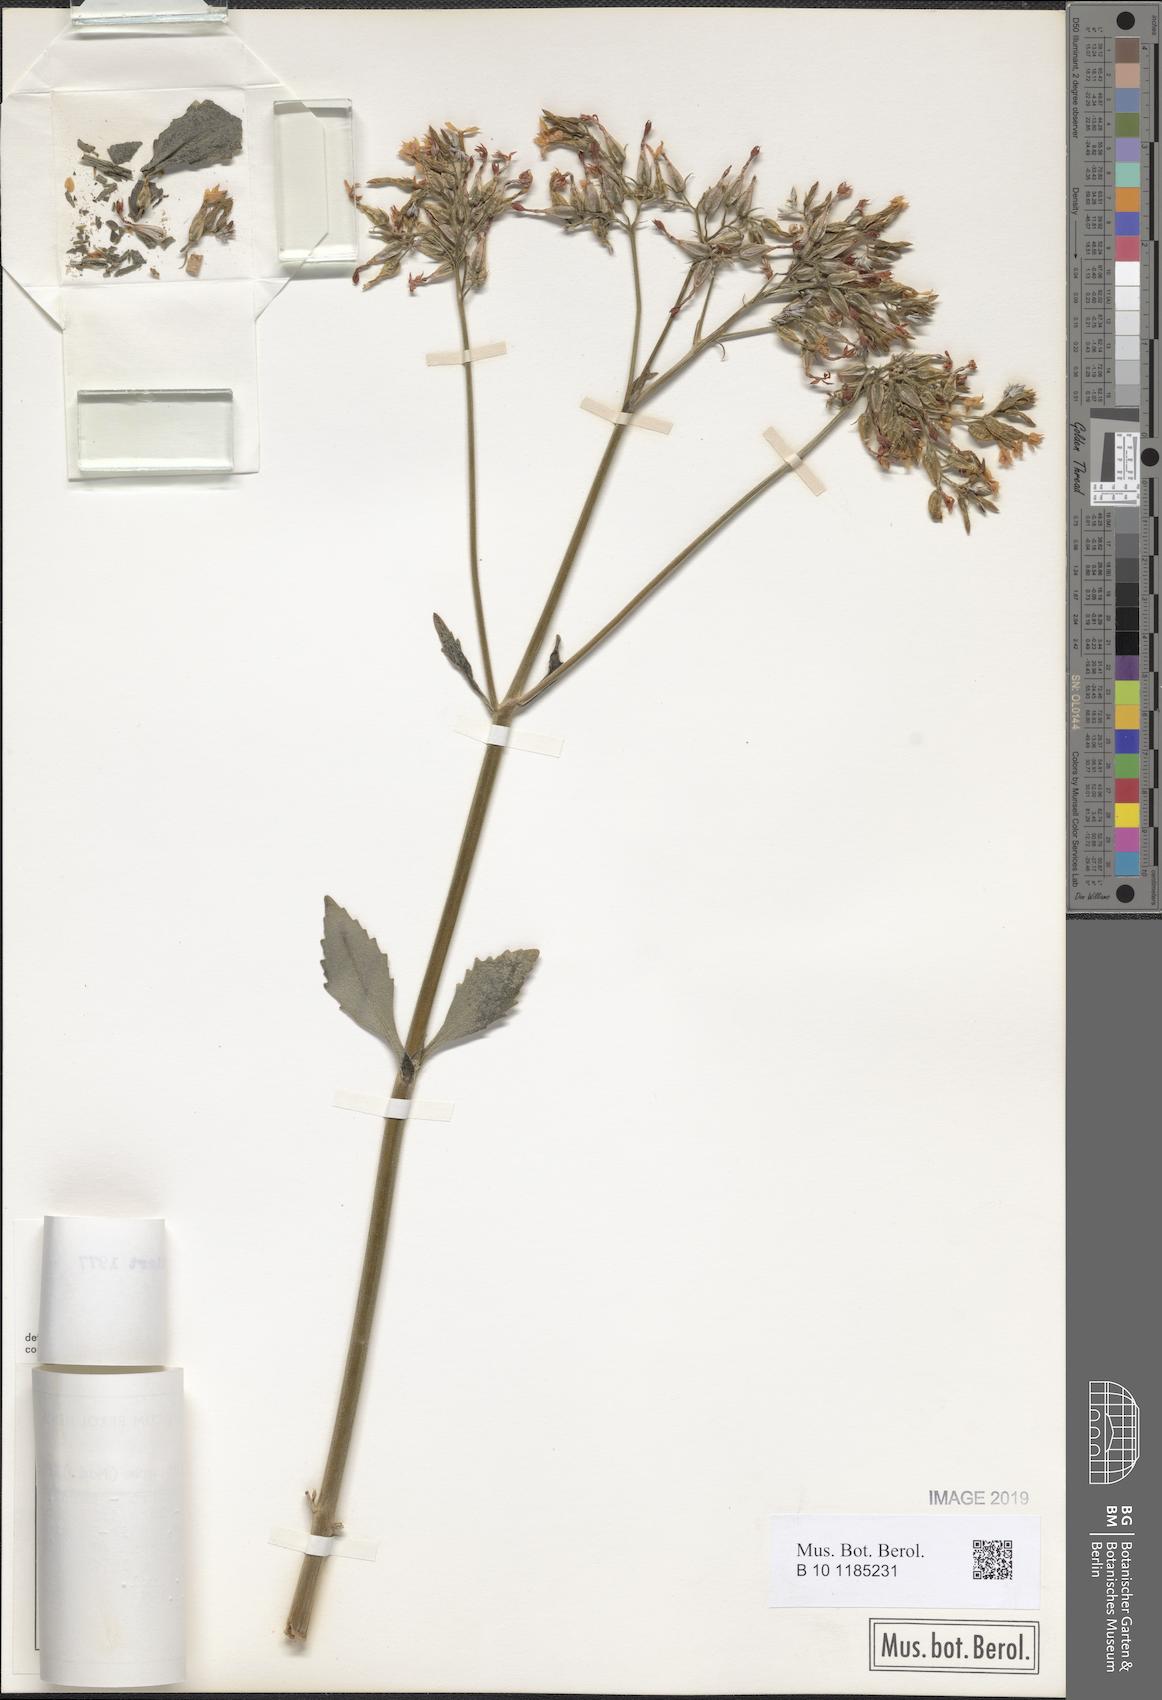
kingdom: Plantae
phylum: Tracheophyta
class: Magnoliopsida
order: Saxifragales
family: Crassulaceae
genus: Kalanchoe
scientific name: Kalanchoe crenata
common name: Neverdie
